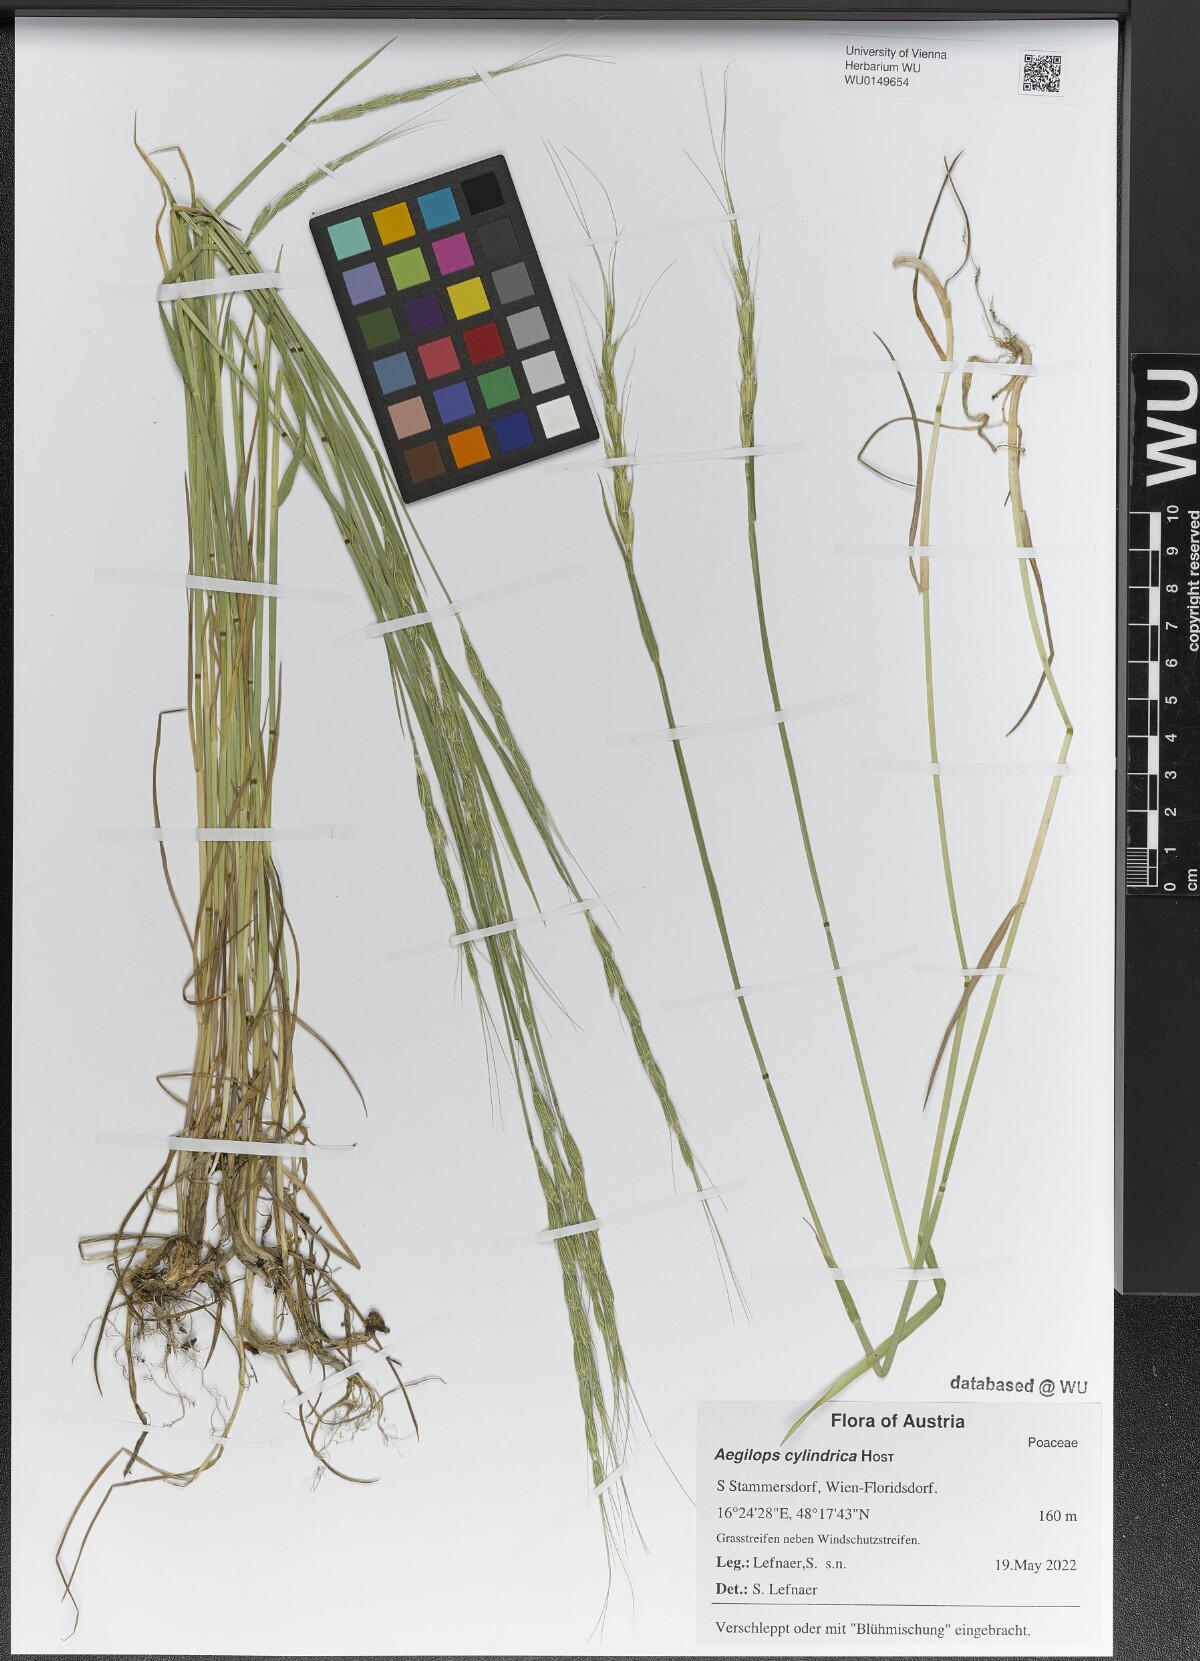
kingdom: Plantae
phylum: Tracheophyta
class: Liliopsida
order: Poales
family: Poaceae
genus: Aegilops
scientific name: Aegilops cylindrica
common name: Jointed goatgrass
